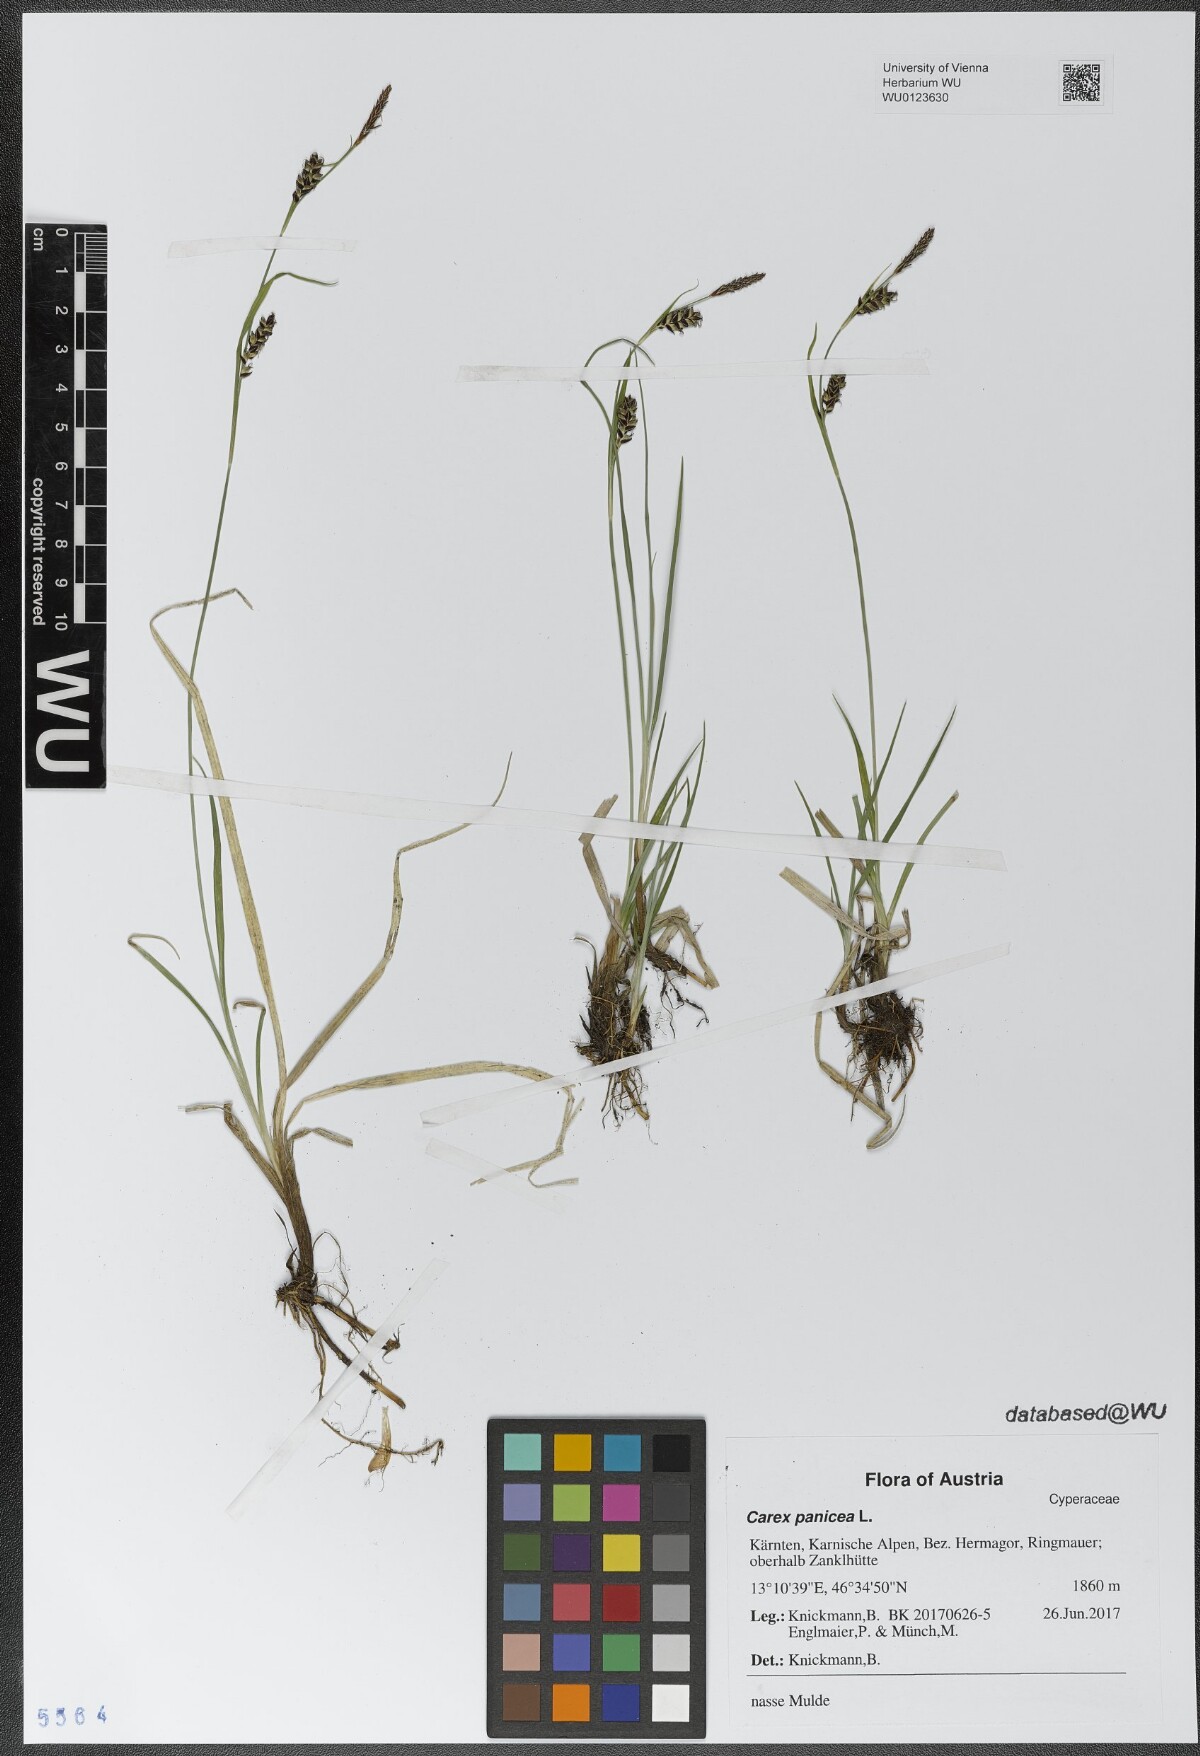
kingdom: Plantae
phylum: Tracheophyta
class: Liliopsida
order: Poales
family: Cyperaceae
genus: Carex
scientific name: Carex panicea
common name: Carnation sedge
